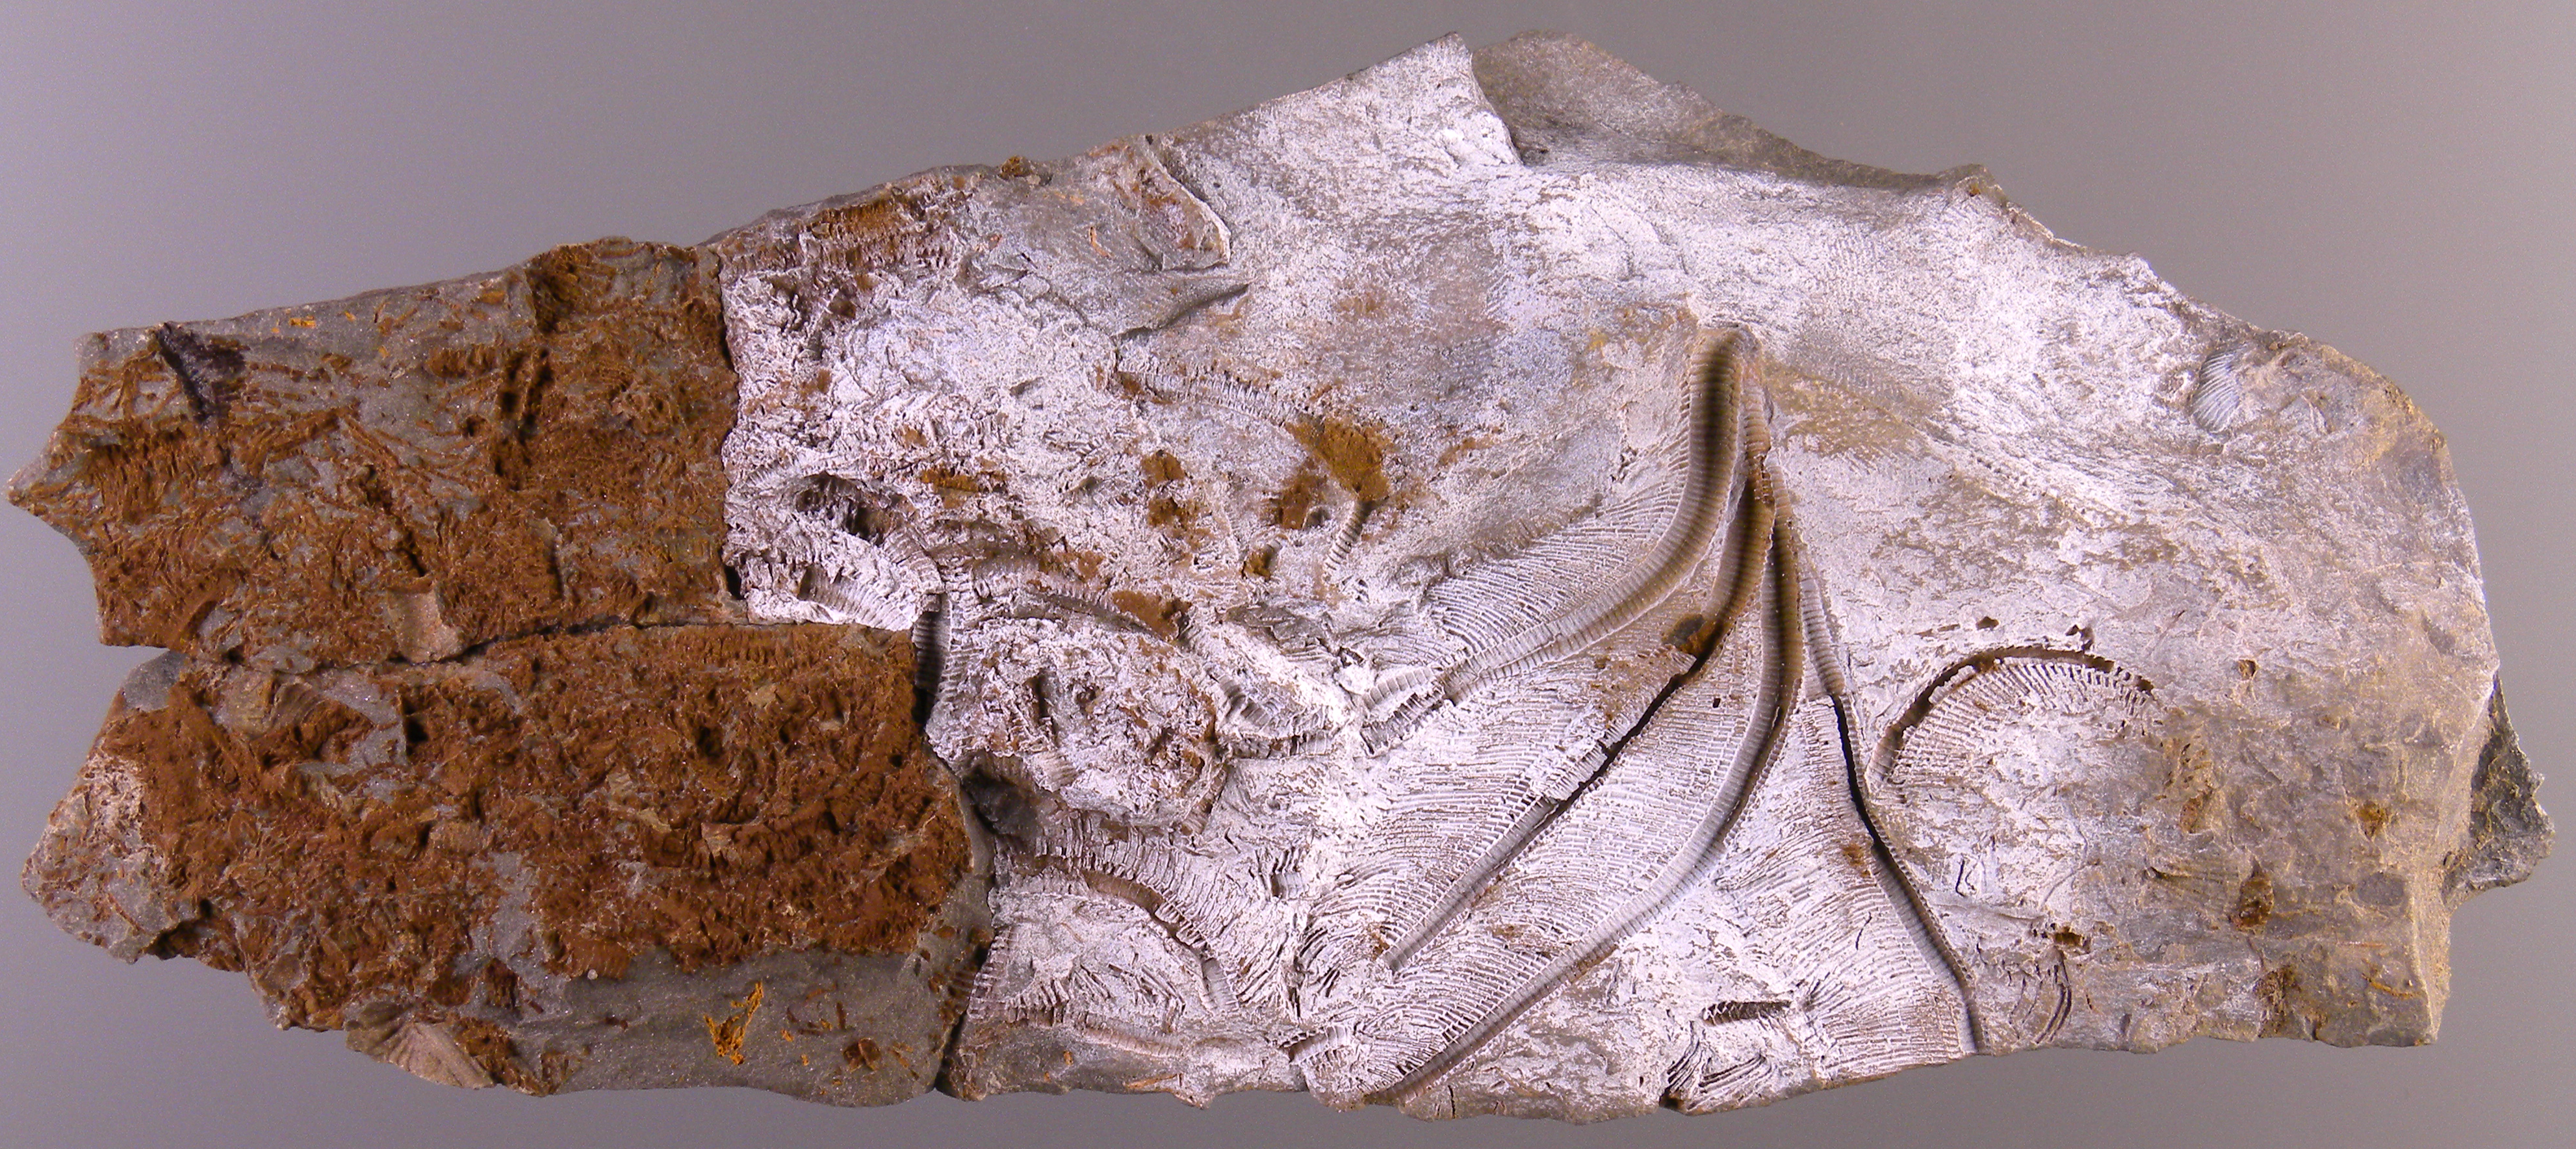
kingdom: Animalia
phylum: Echinodermata
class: Crinoidea
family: Rhodocrinitidae
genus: Acanthocrinus
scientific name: Acanthocrinus
